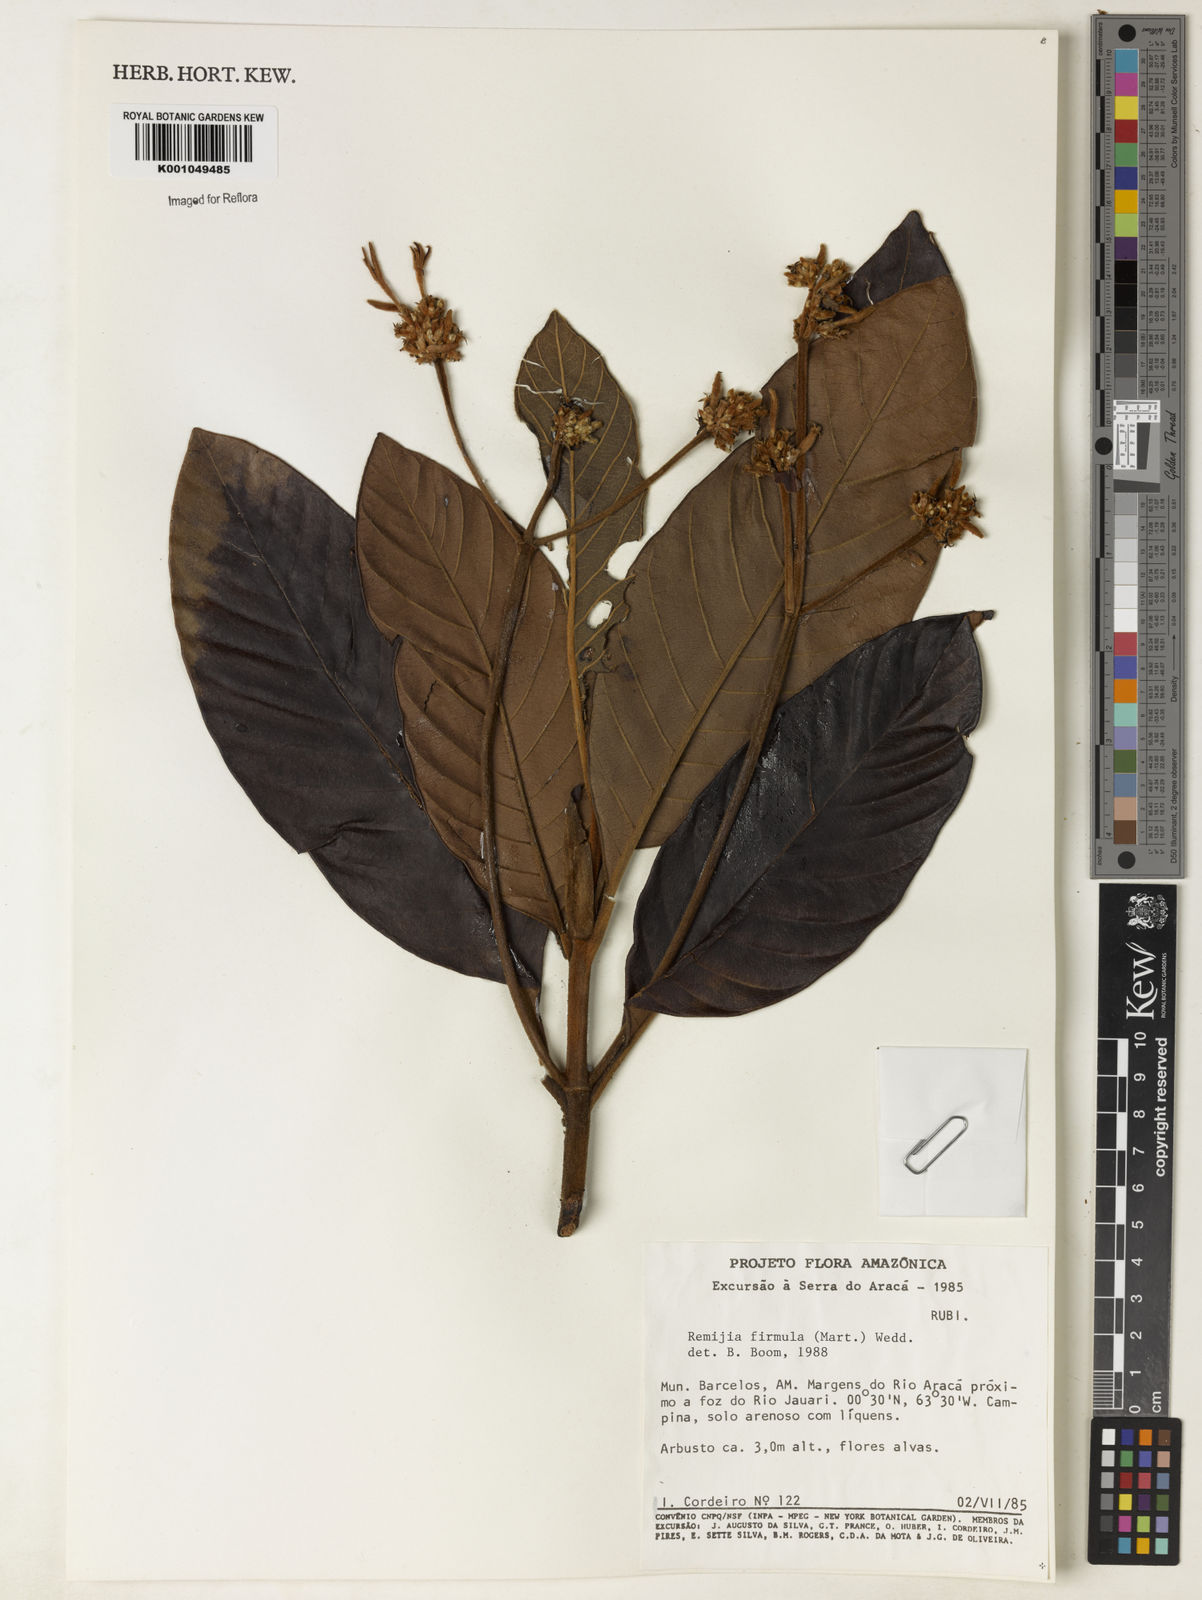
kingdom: Plantae
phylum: Tracheophyta
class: Magnoliopsida
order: Gentianales
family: Rubiaceae
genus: Remijia
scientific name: Remijia firmula
